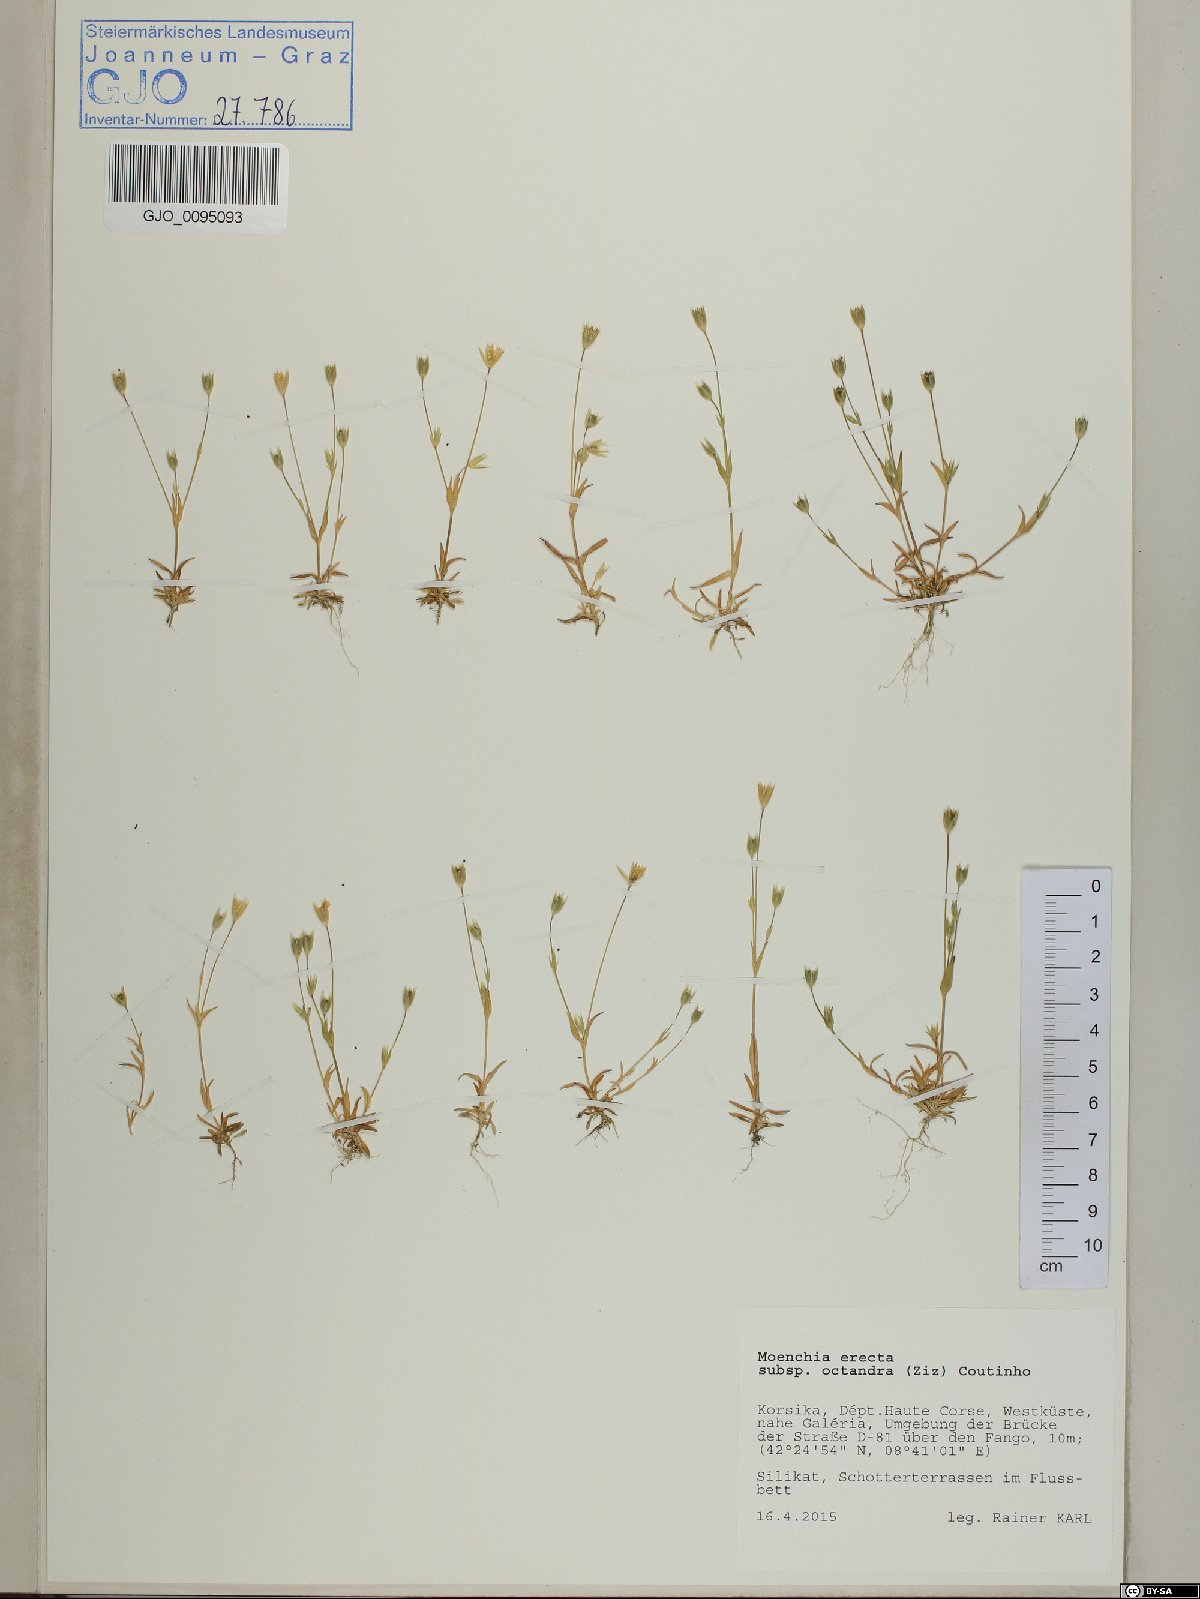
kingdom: Plantae
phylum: Tracheophyta
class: Magnoliopsida
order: Caryophyllales
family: Caryophyllaceae
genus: Moenchia
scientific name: Moenchia erecta
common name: Upright chickweed
